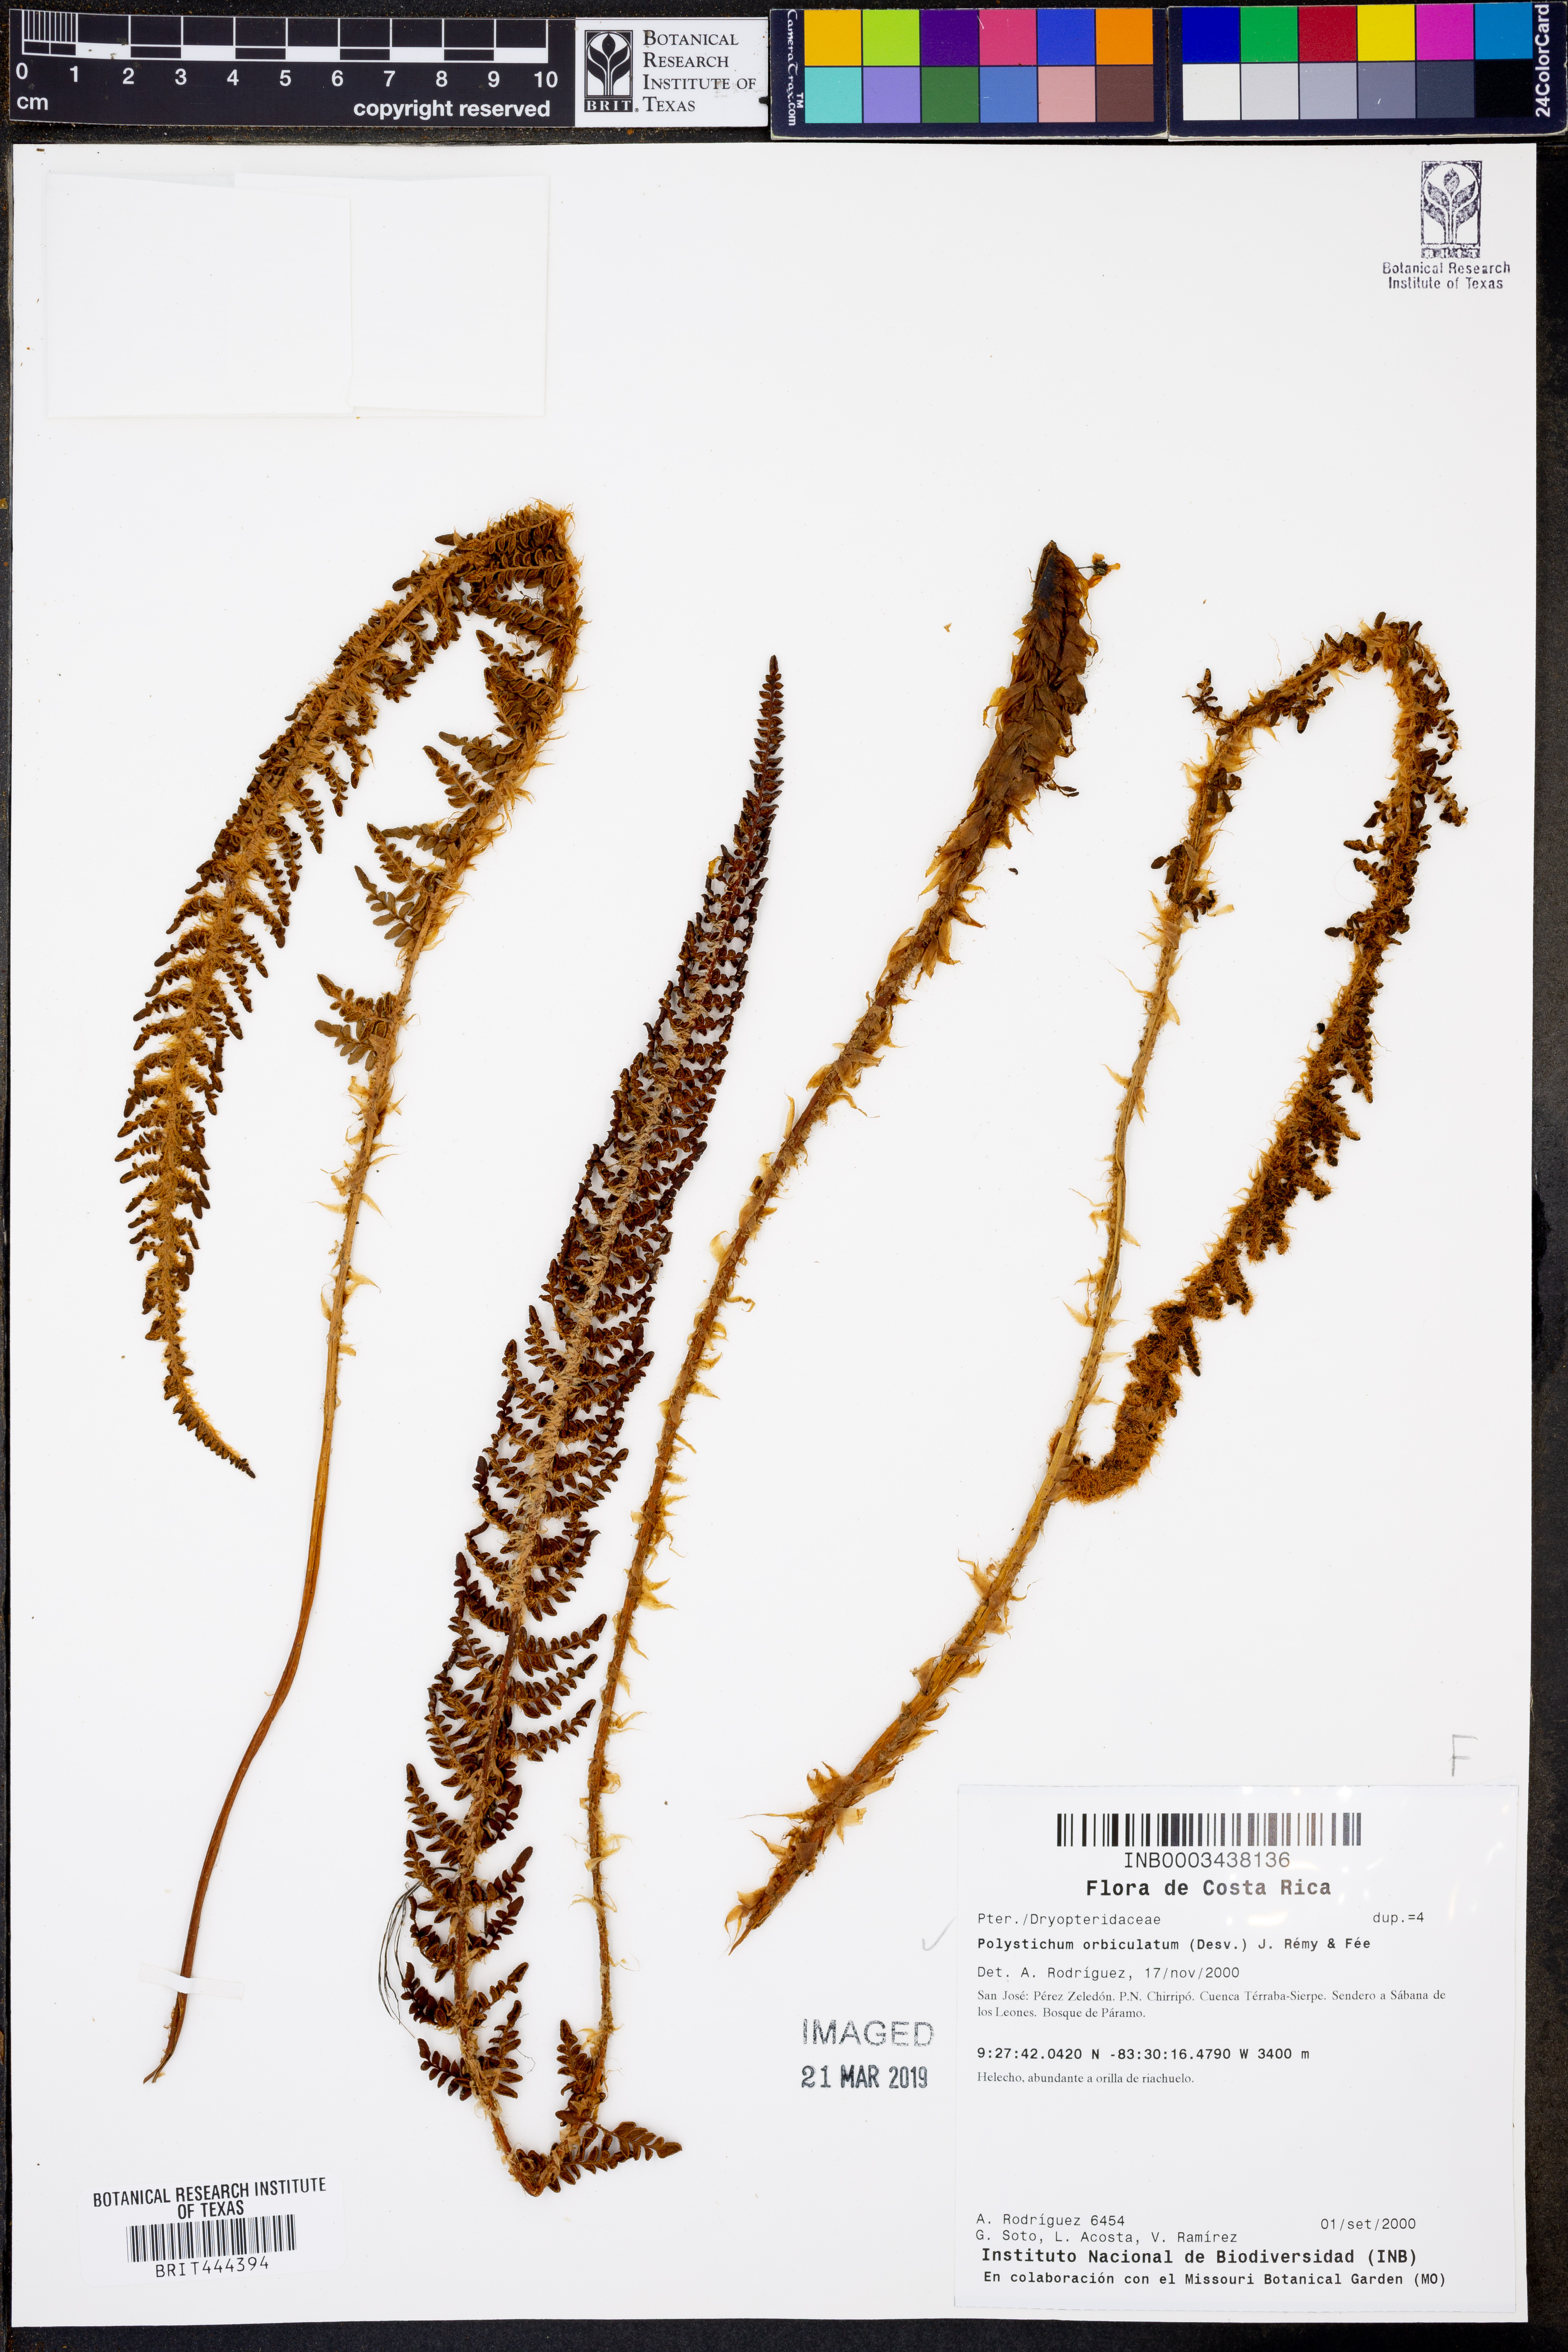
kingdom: Plantae
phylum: Tracheophyta
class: Polypodiopsida
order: Polypodiales
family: Dryopteridaceae
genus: Polystichum
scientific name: Polystichum orbiculatum
